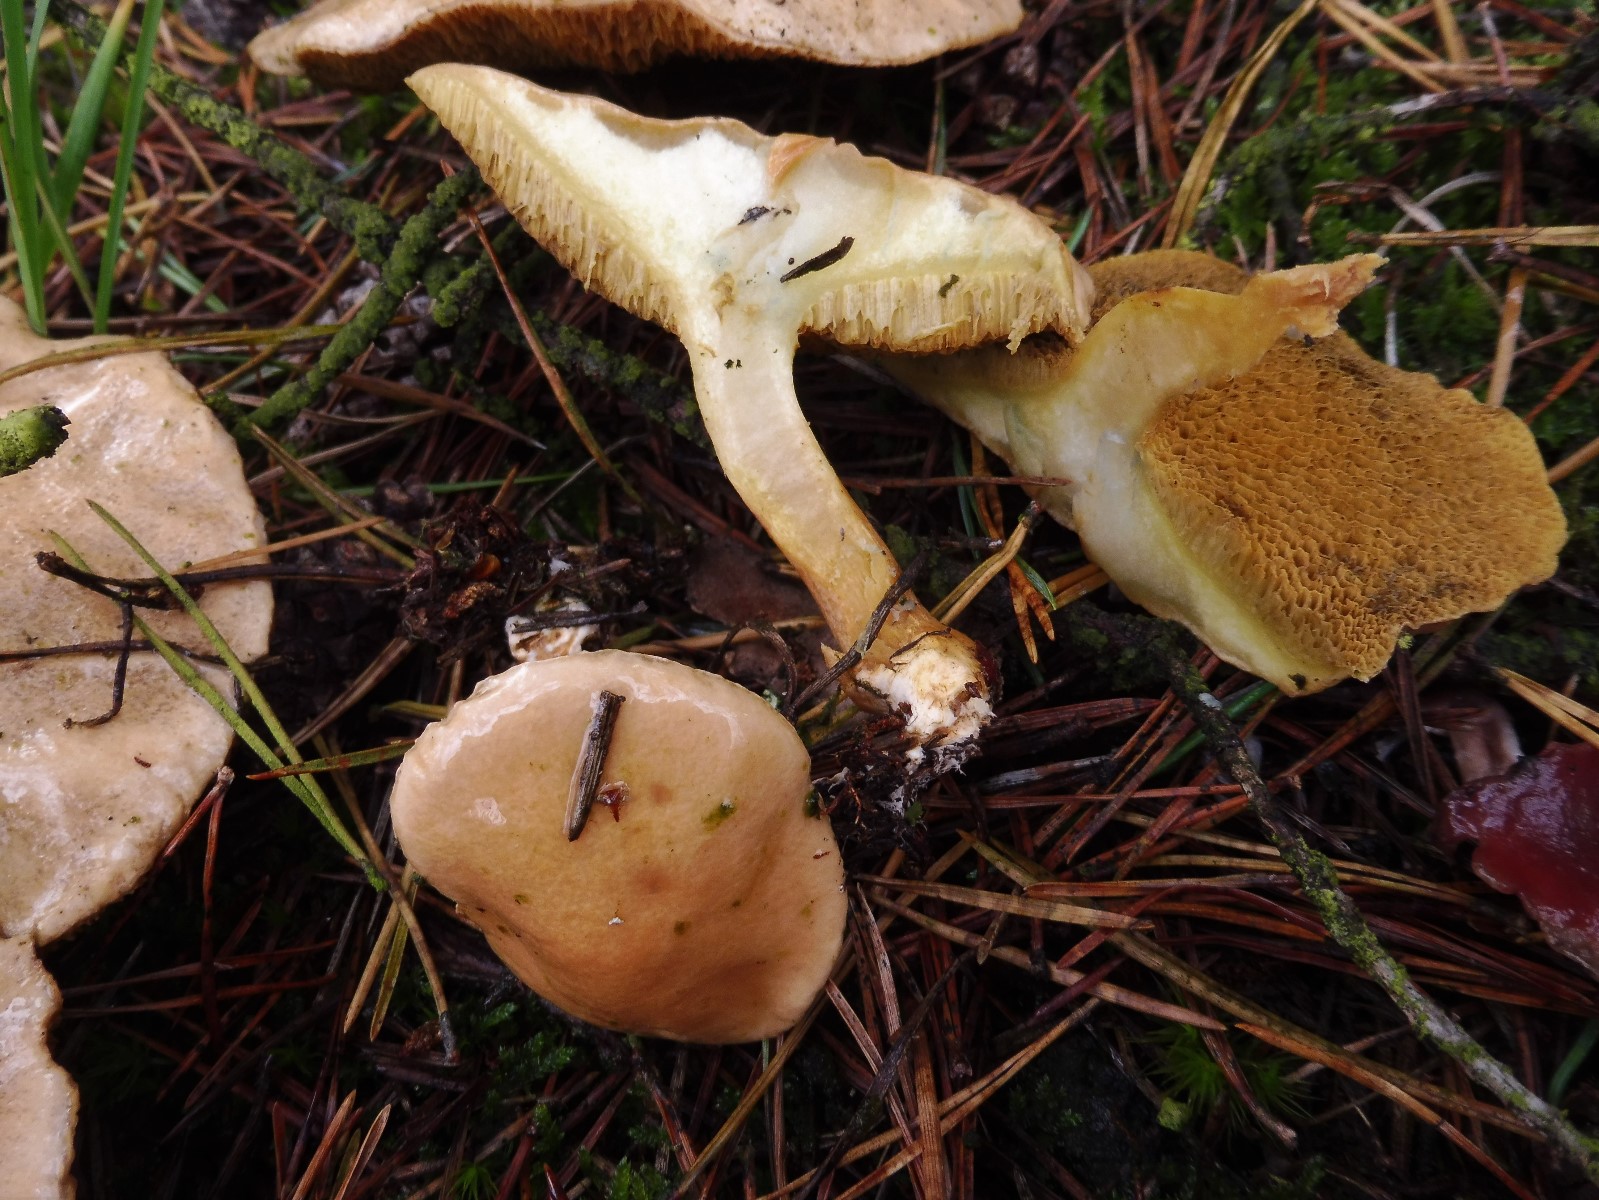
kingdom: Fungi
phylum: Basidiomycota
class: Agaricomycetes
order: Boletales
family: Suillaceae
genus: Suillus
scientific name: Suillus bovinus
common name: grovporet slimrørhat
